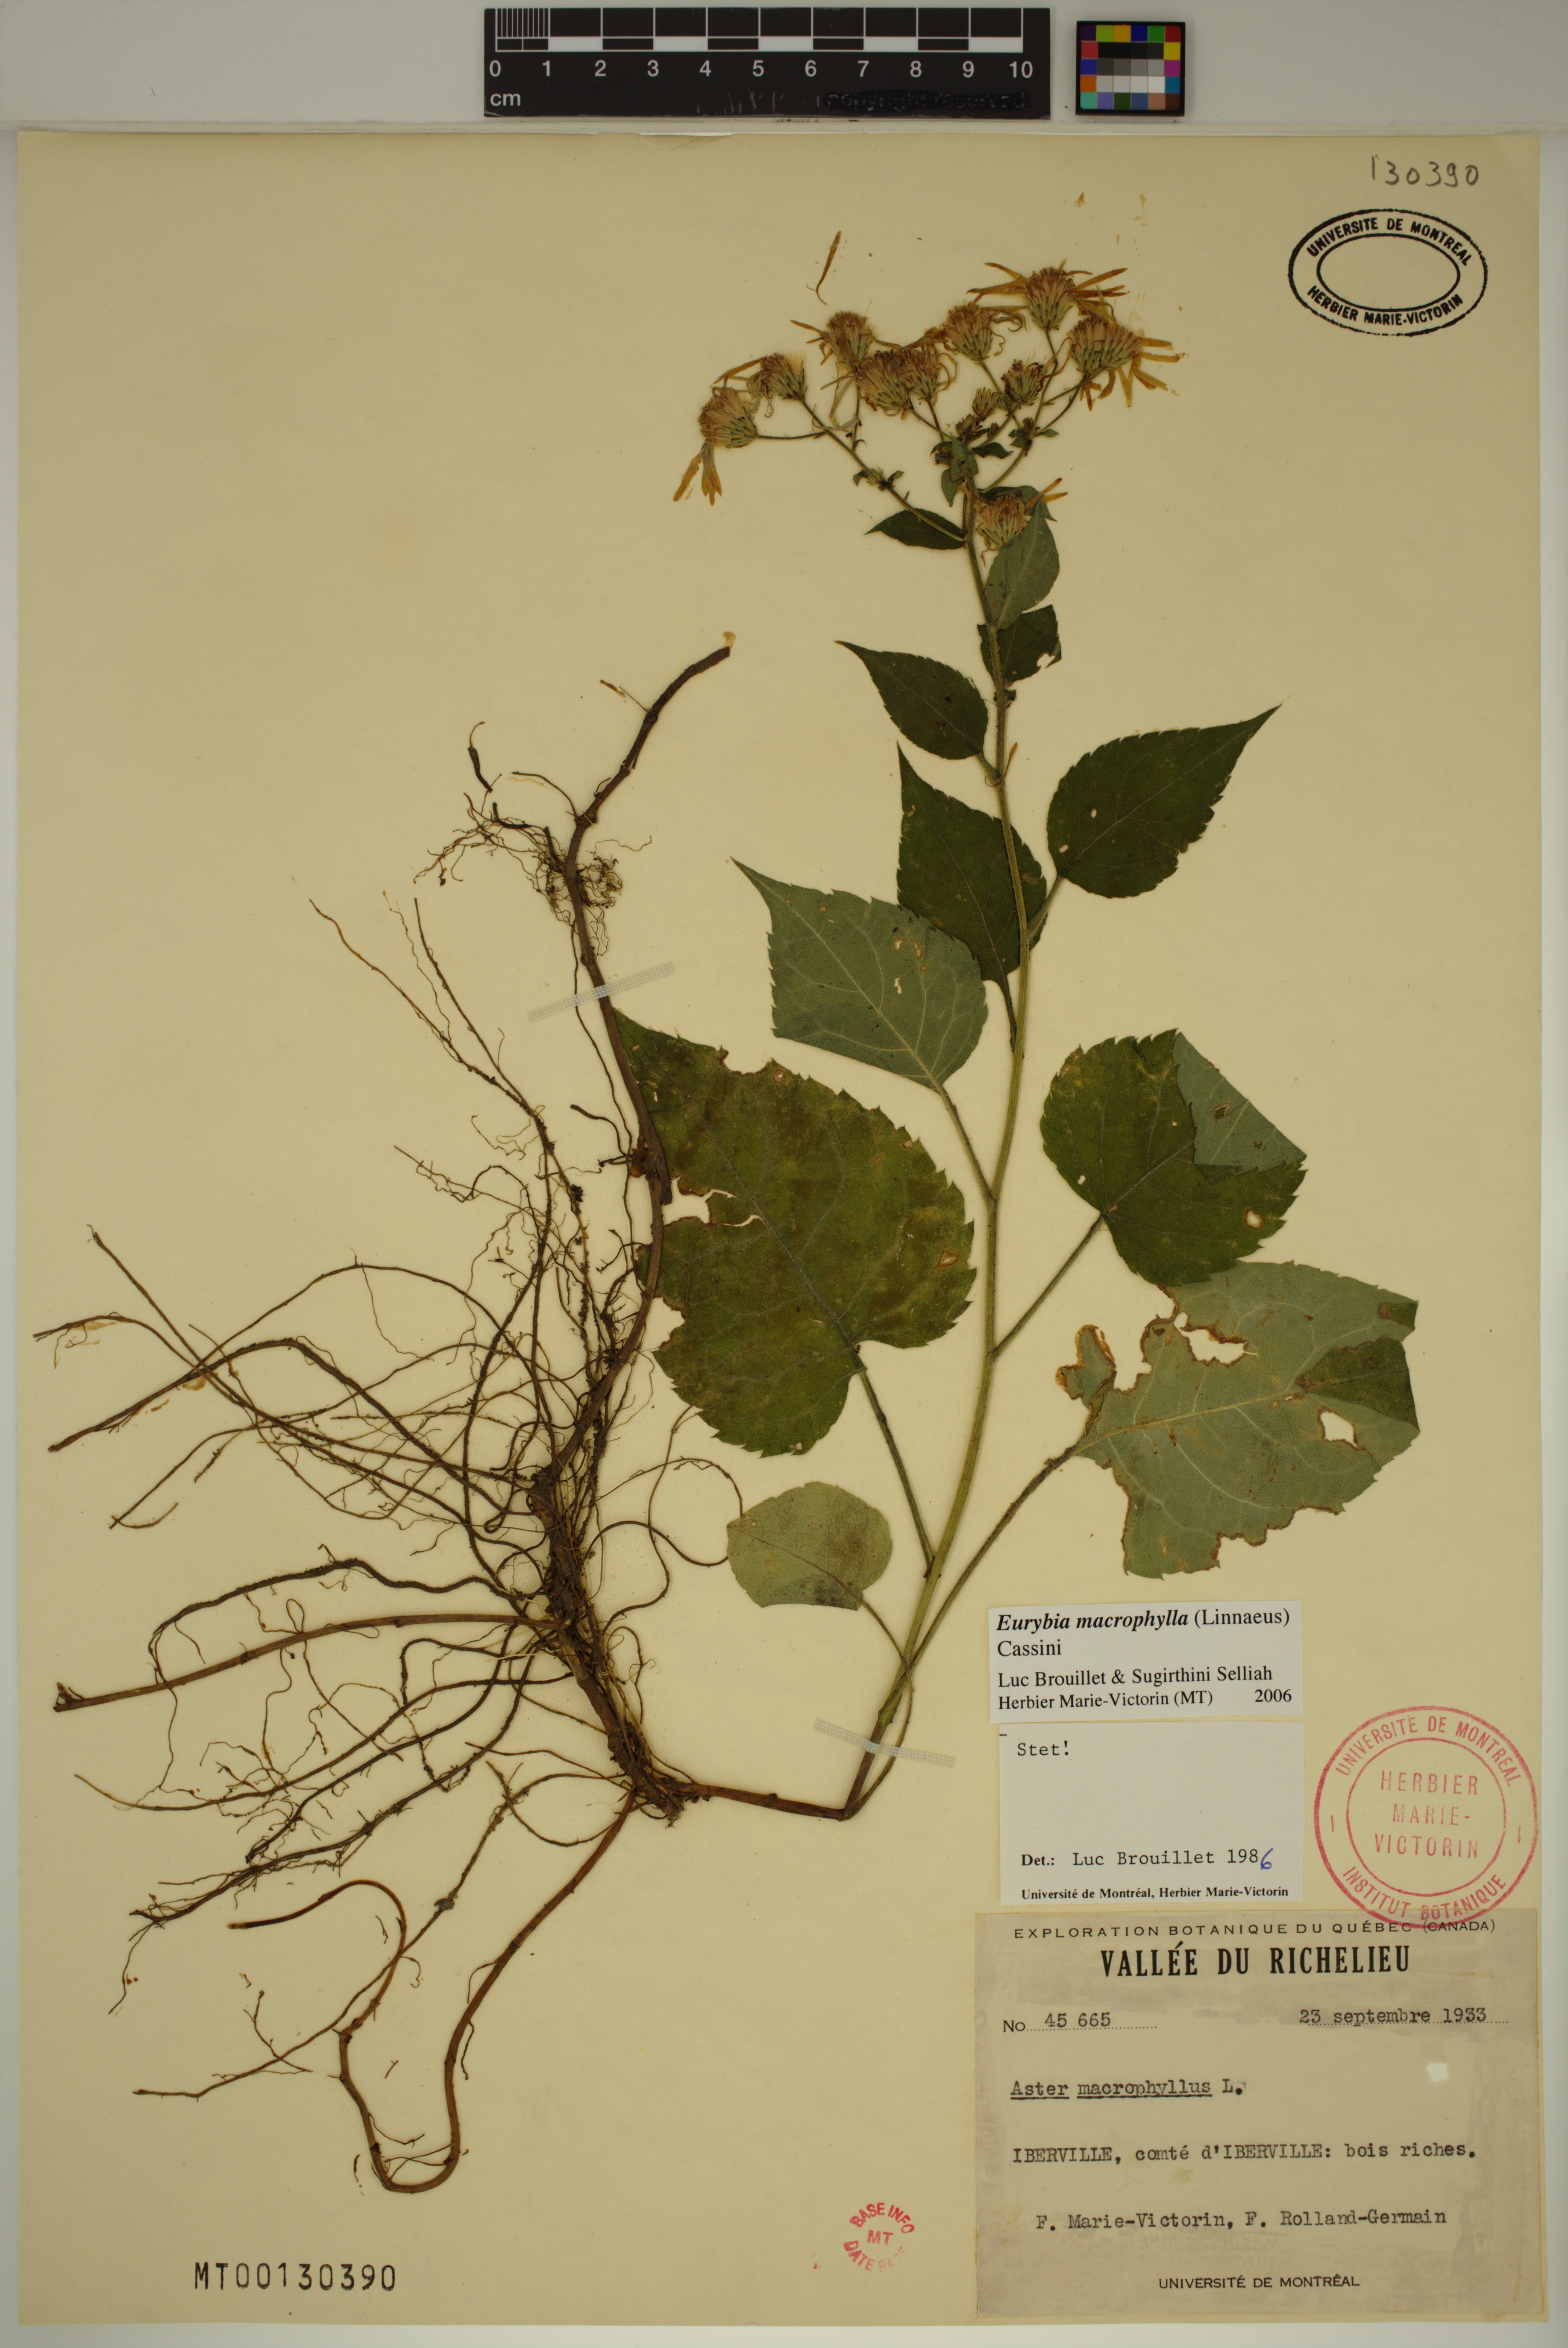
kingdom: Plantae
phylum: Tracheophyta
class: Magnoliopsida
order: Asterales
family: Asteraceae
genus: Eurybia
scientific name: Eurybia macrophylla
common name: Big-leaved aster
